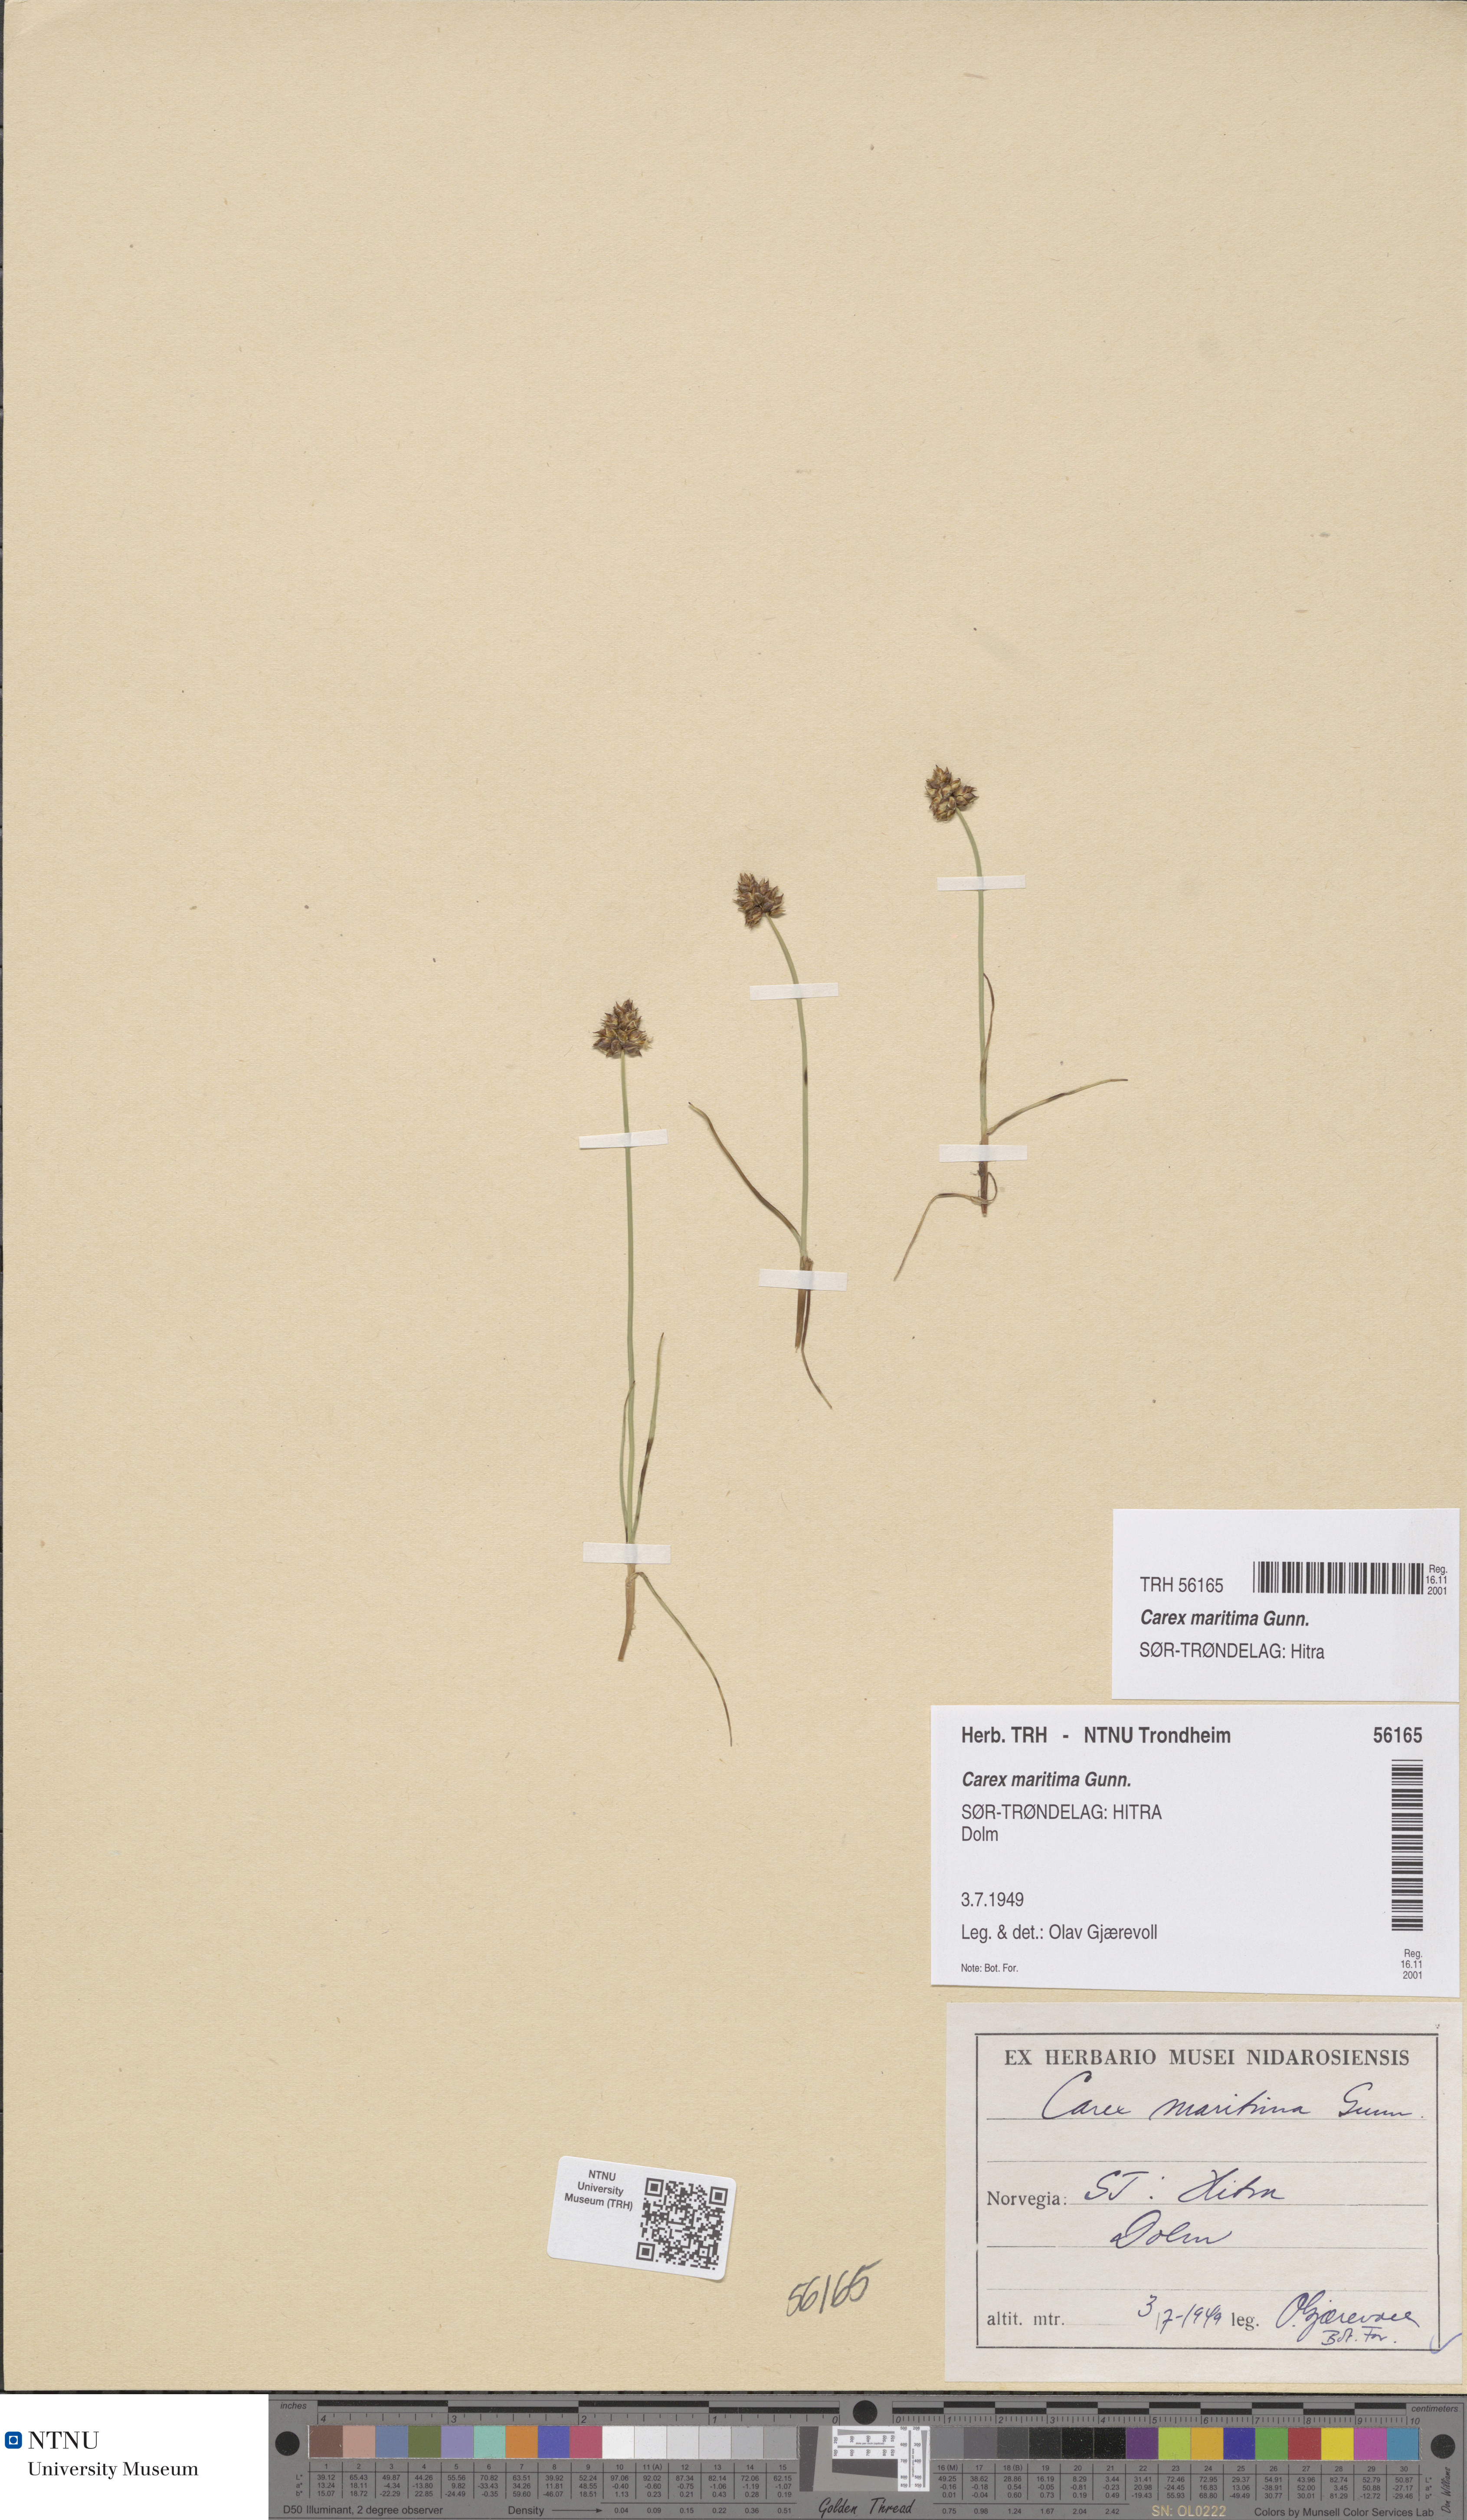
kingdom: Plantae
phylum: Tracheophyta
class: Liliopsida
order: Poales
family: Cyperaceae
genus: Carex
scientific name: Carex maritima
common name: Curved sedge
